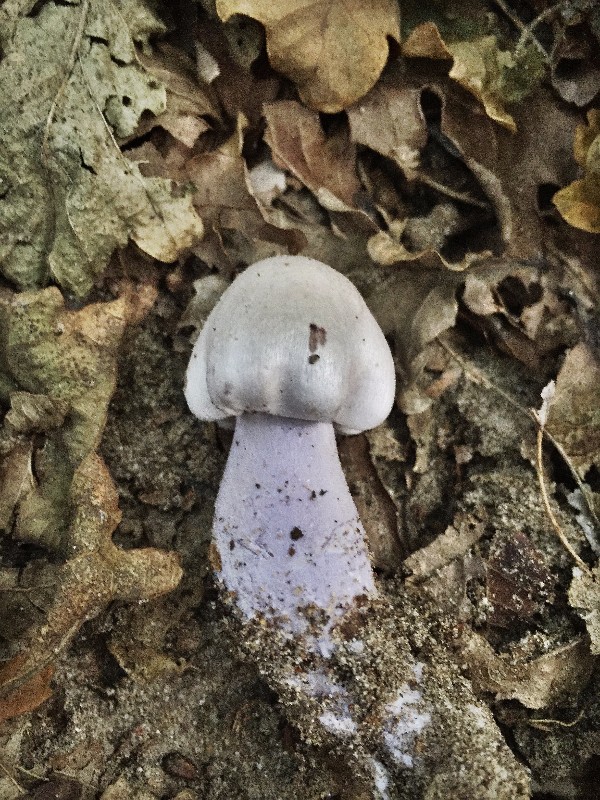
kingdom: Fungi
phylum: Basidiomycota
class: Agaricomycetes
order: Agaricales
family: Cortinariaceae
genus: Cortinarius
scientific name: Cortinarius
